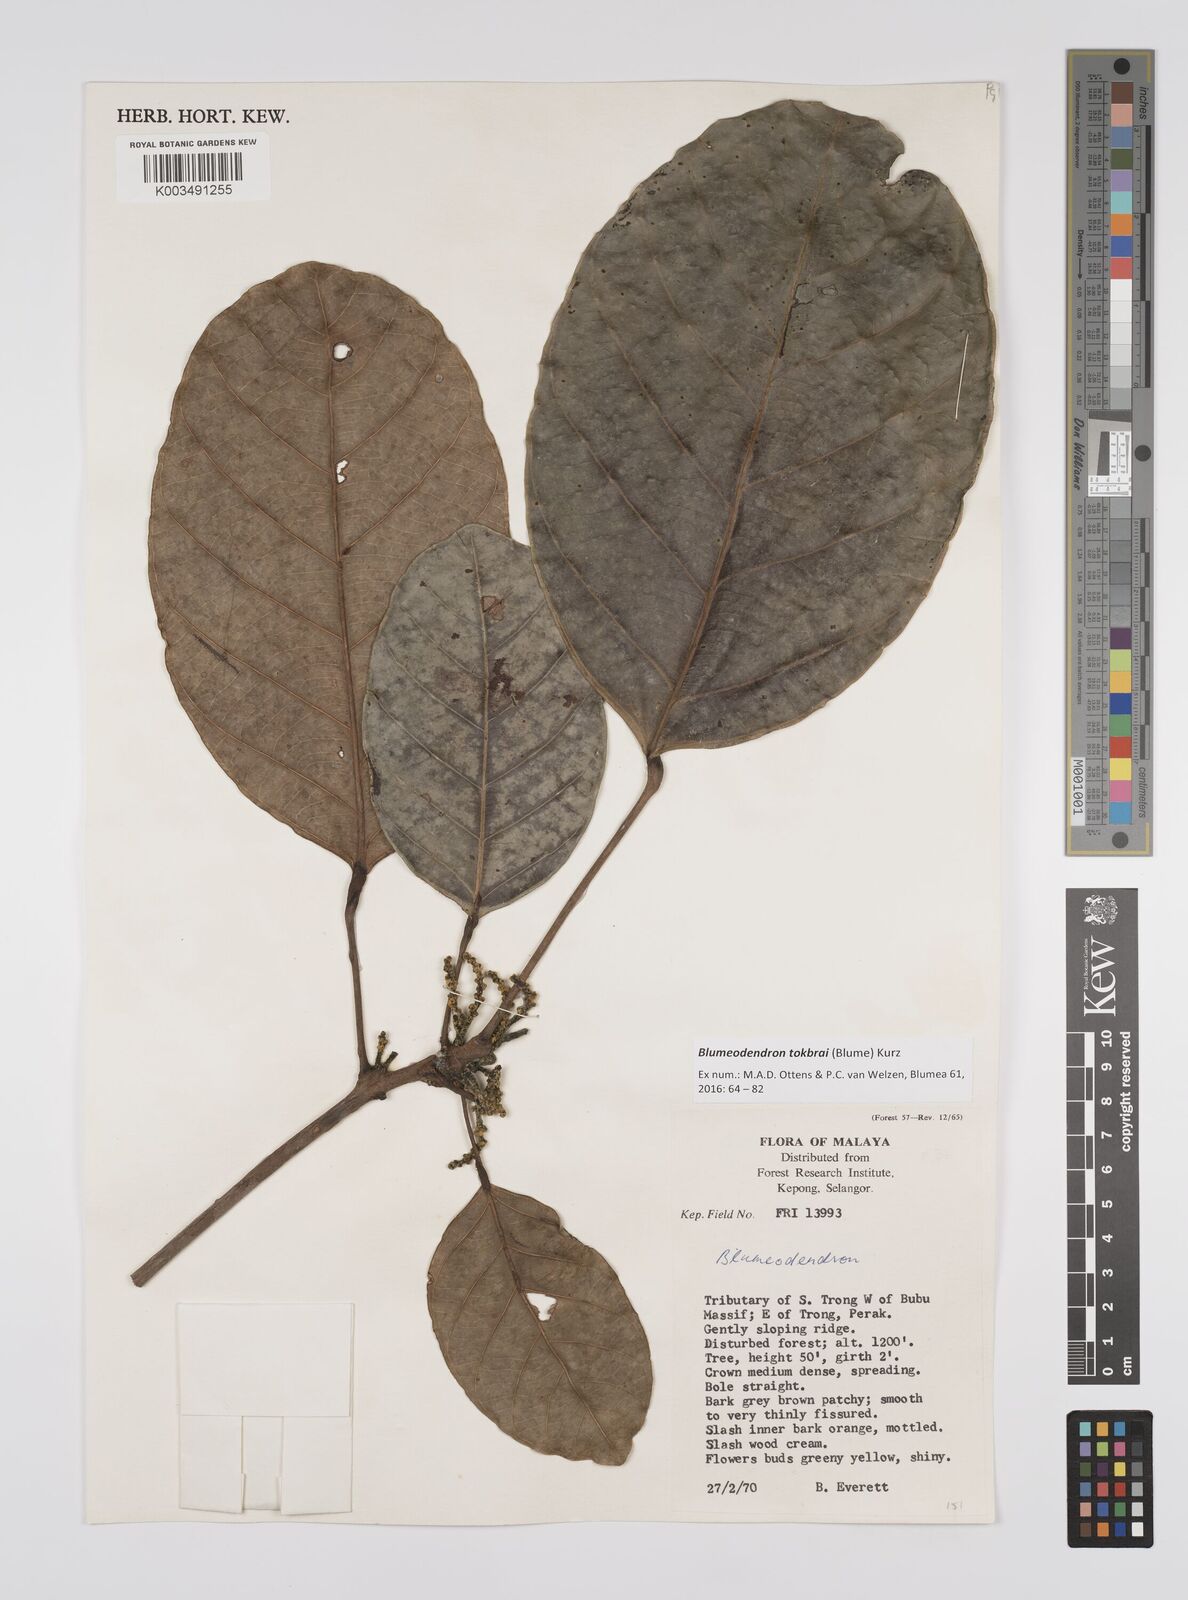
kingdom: Plantae
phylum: Tracheophyta
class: Magnoliopsida
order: Malpighiales
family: Euphorbiaceae
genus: Blumeodendron
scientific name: Blumeodendron tokbrai
